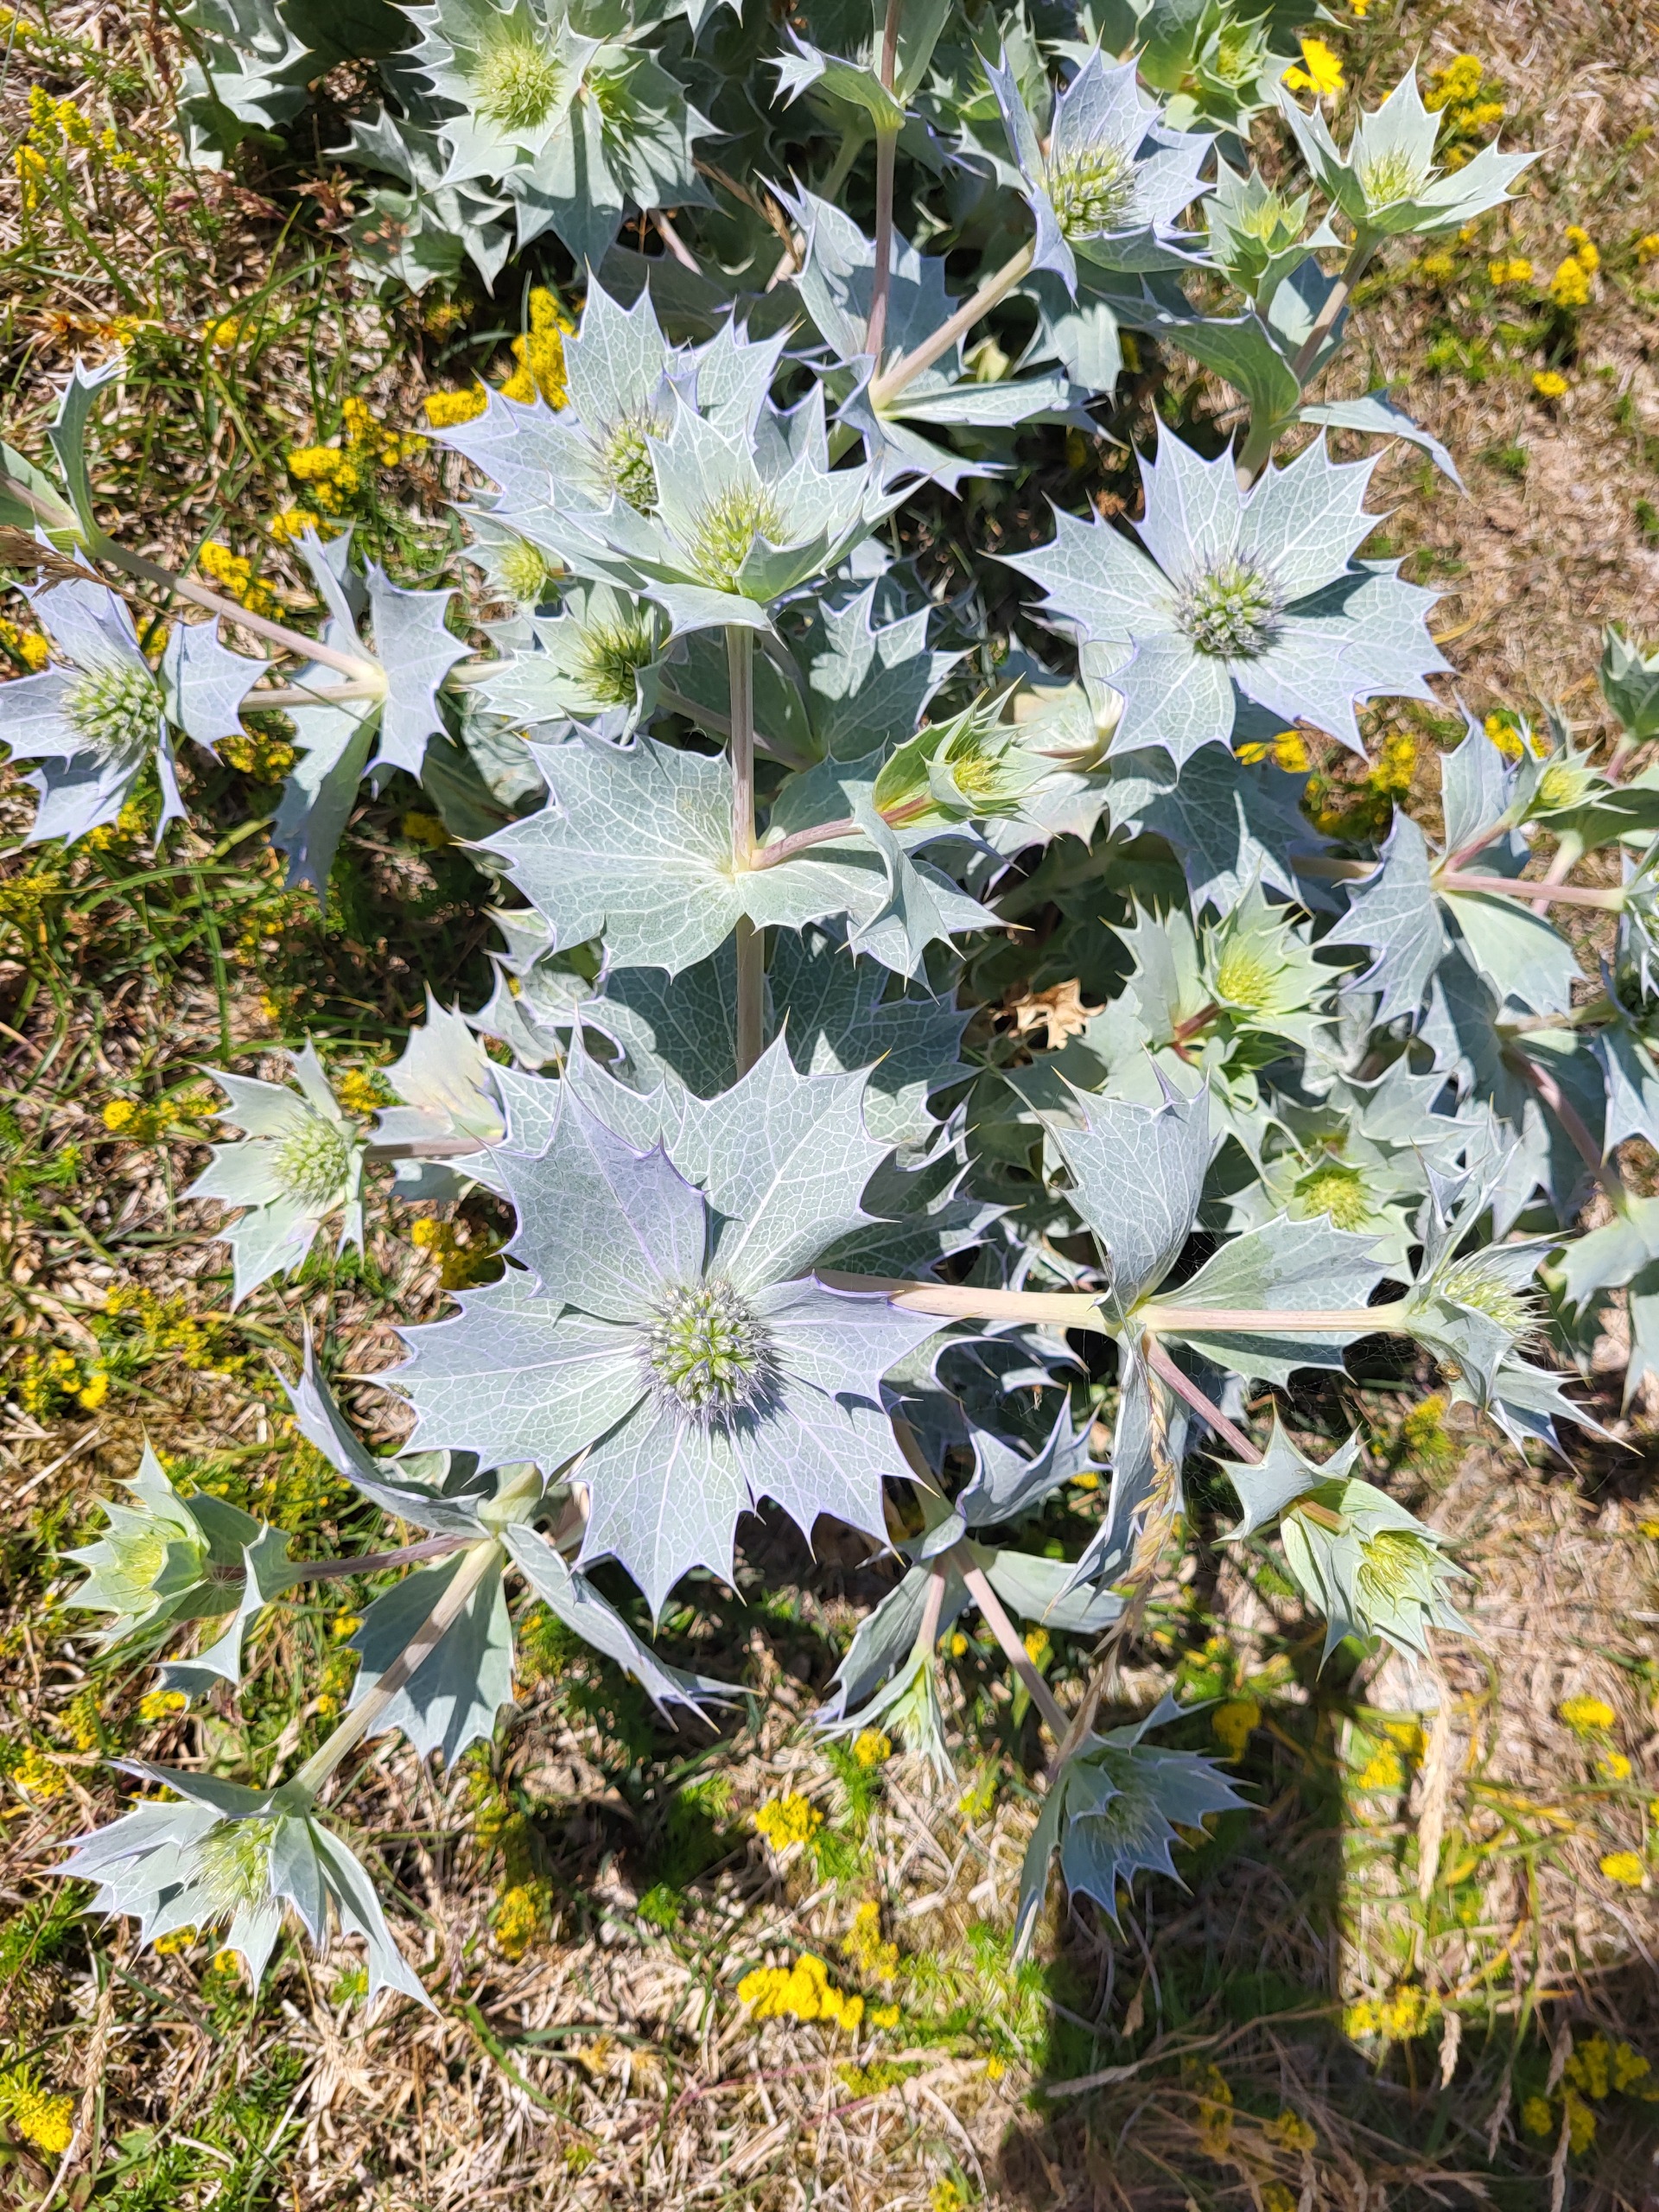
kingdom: Plantae
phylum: Tracheophyta
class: Magnoliopsida
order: Apiales
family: Apiaceae
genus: Eryngium
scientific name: Eryngium maritimum
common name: Strand-mandstro
